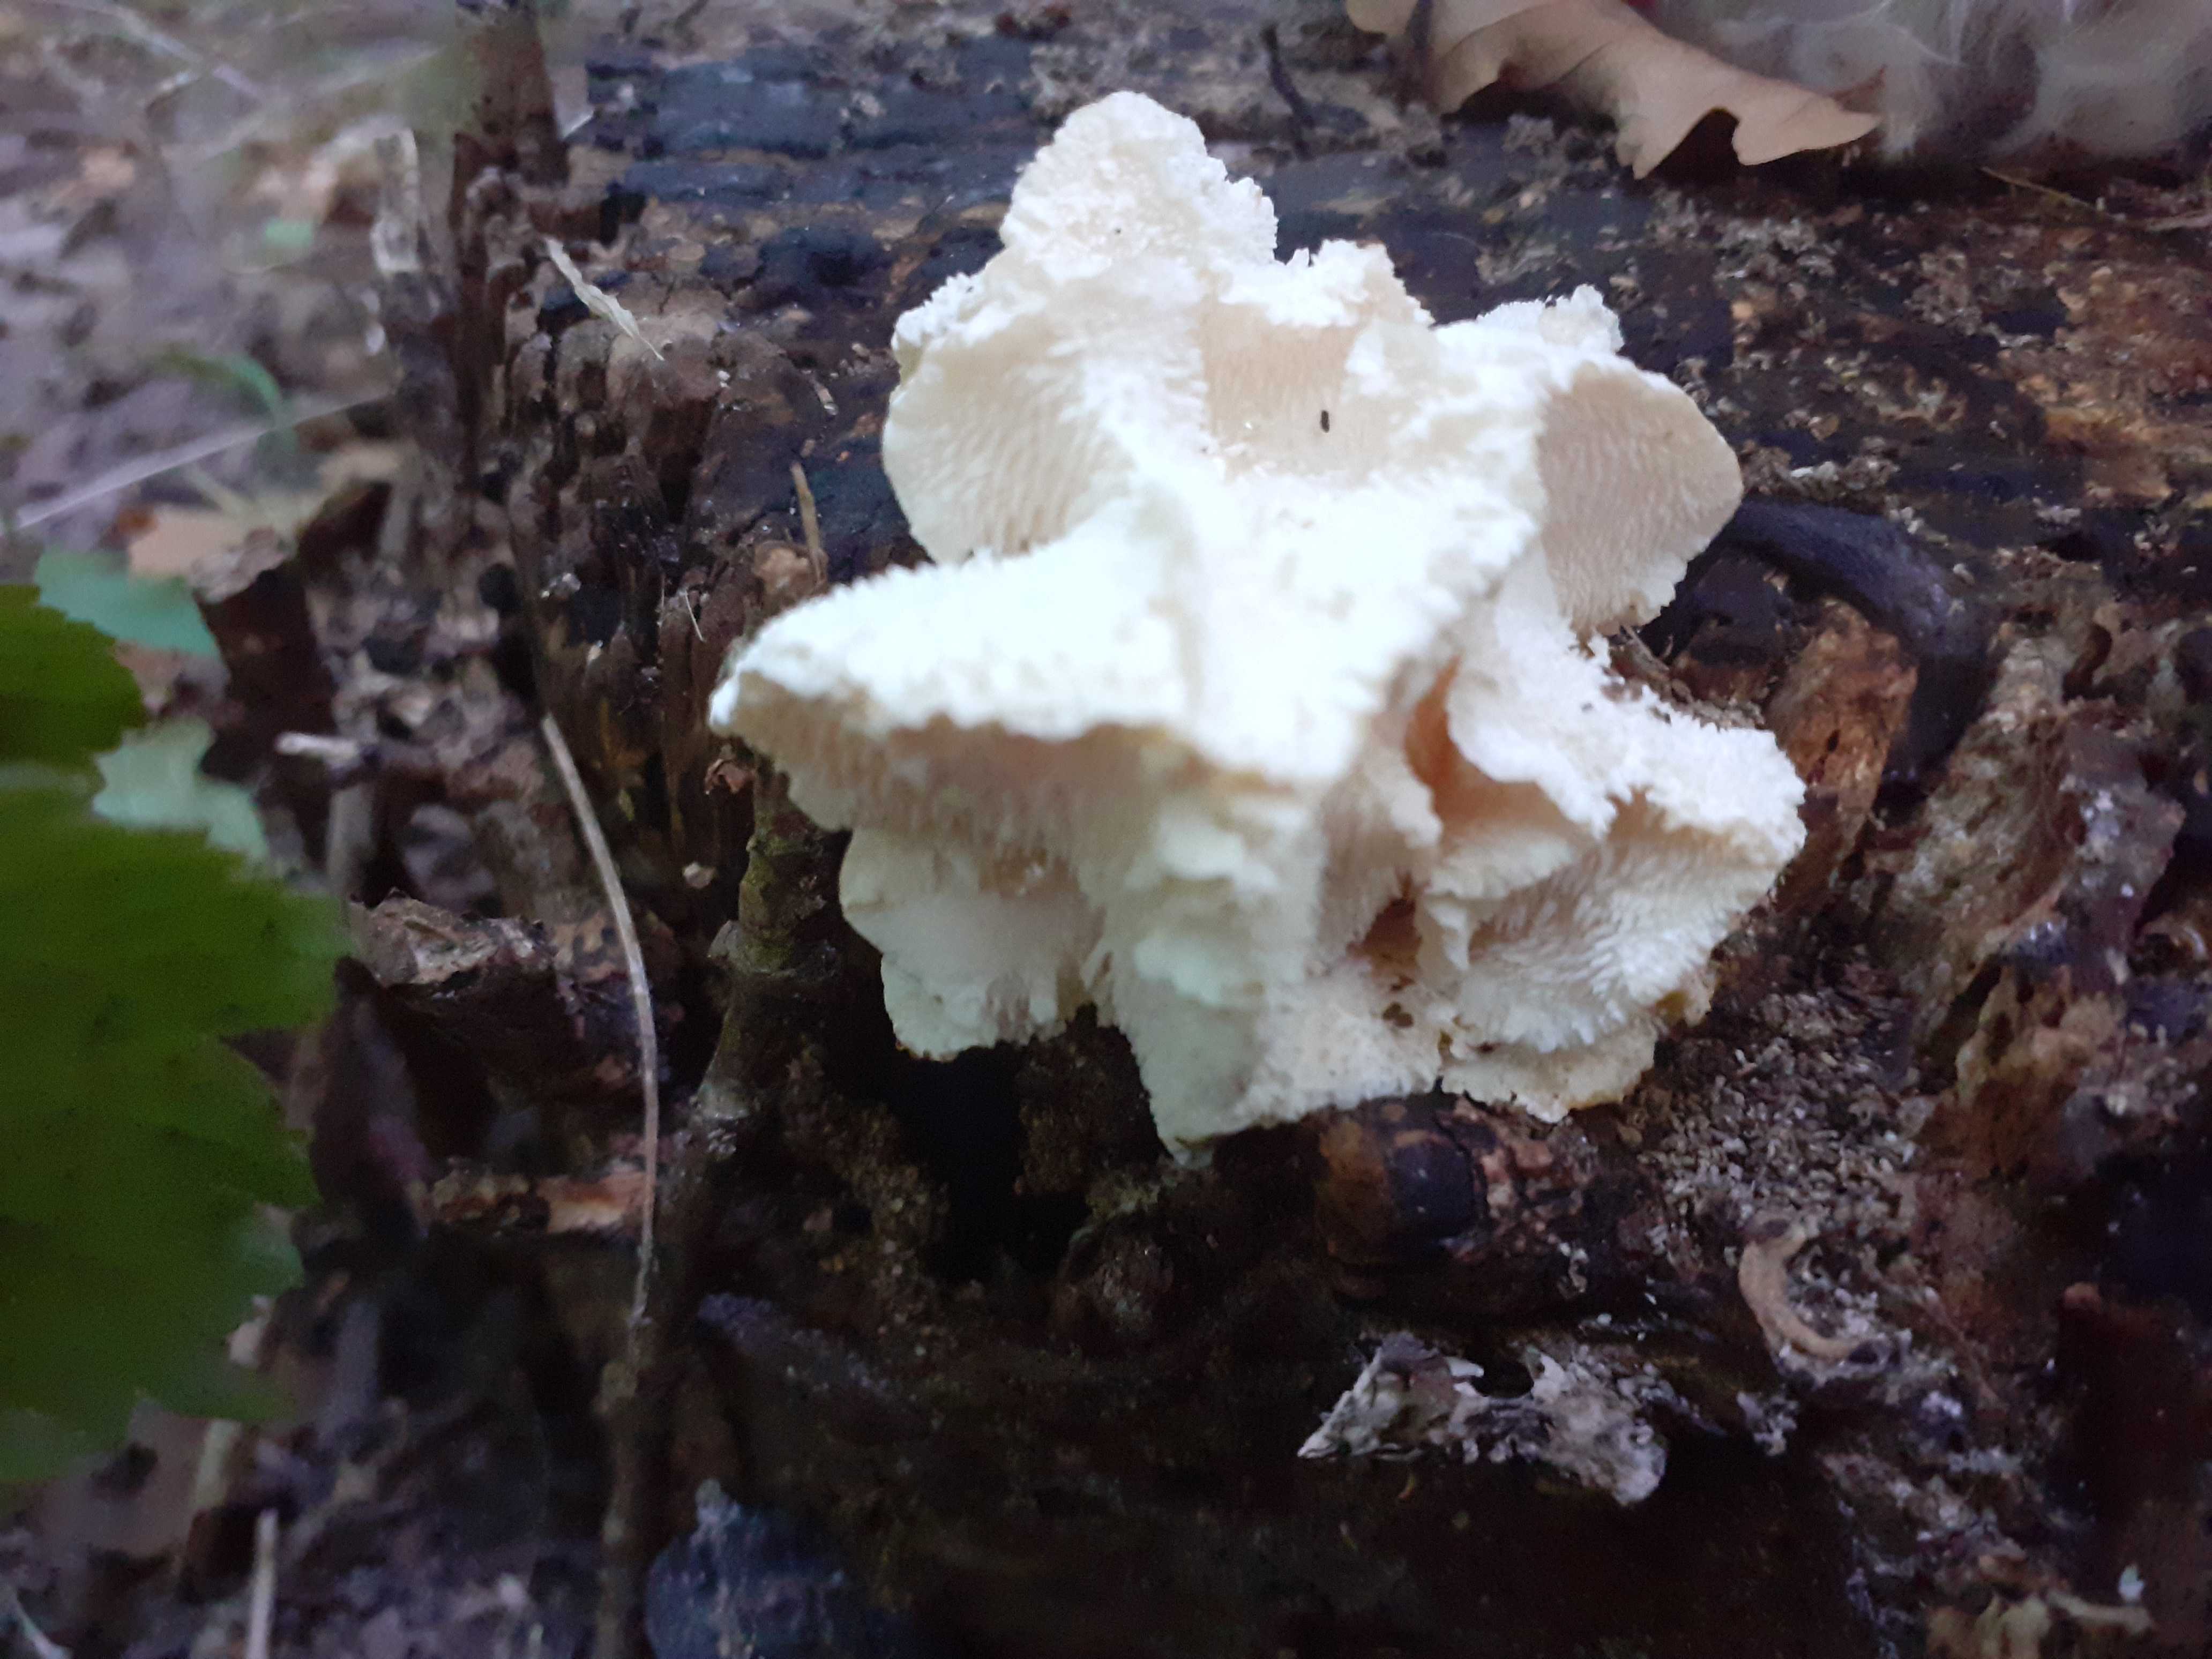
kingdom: Fungi
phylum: Basidiomycota
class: Agaricomycetes
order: Russulales
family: Hericiaceae
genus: Hericium
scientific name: Hericium cirrhatum
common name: børstepigsvamp
